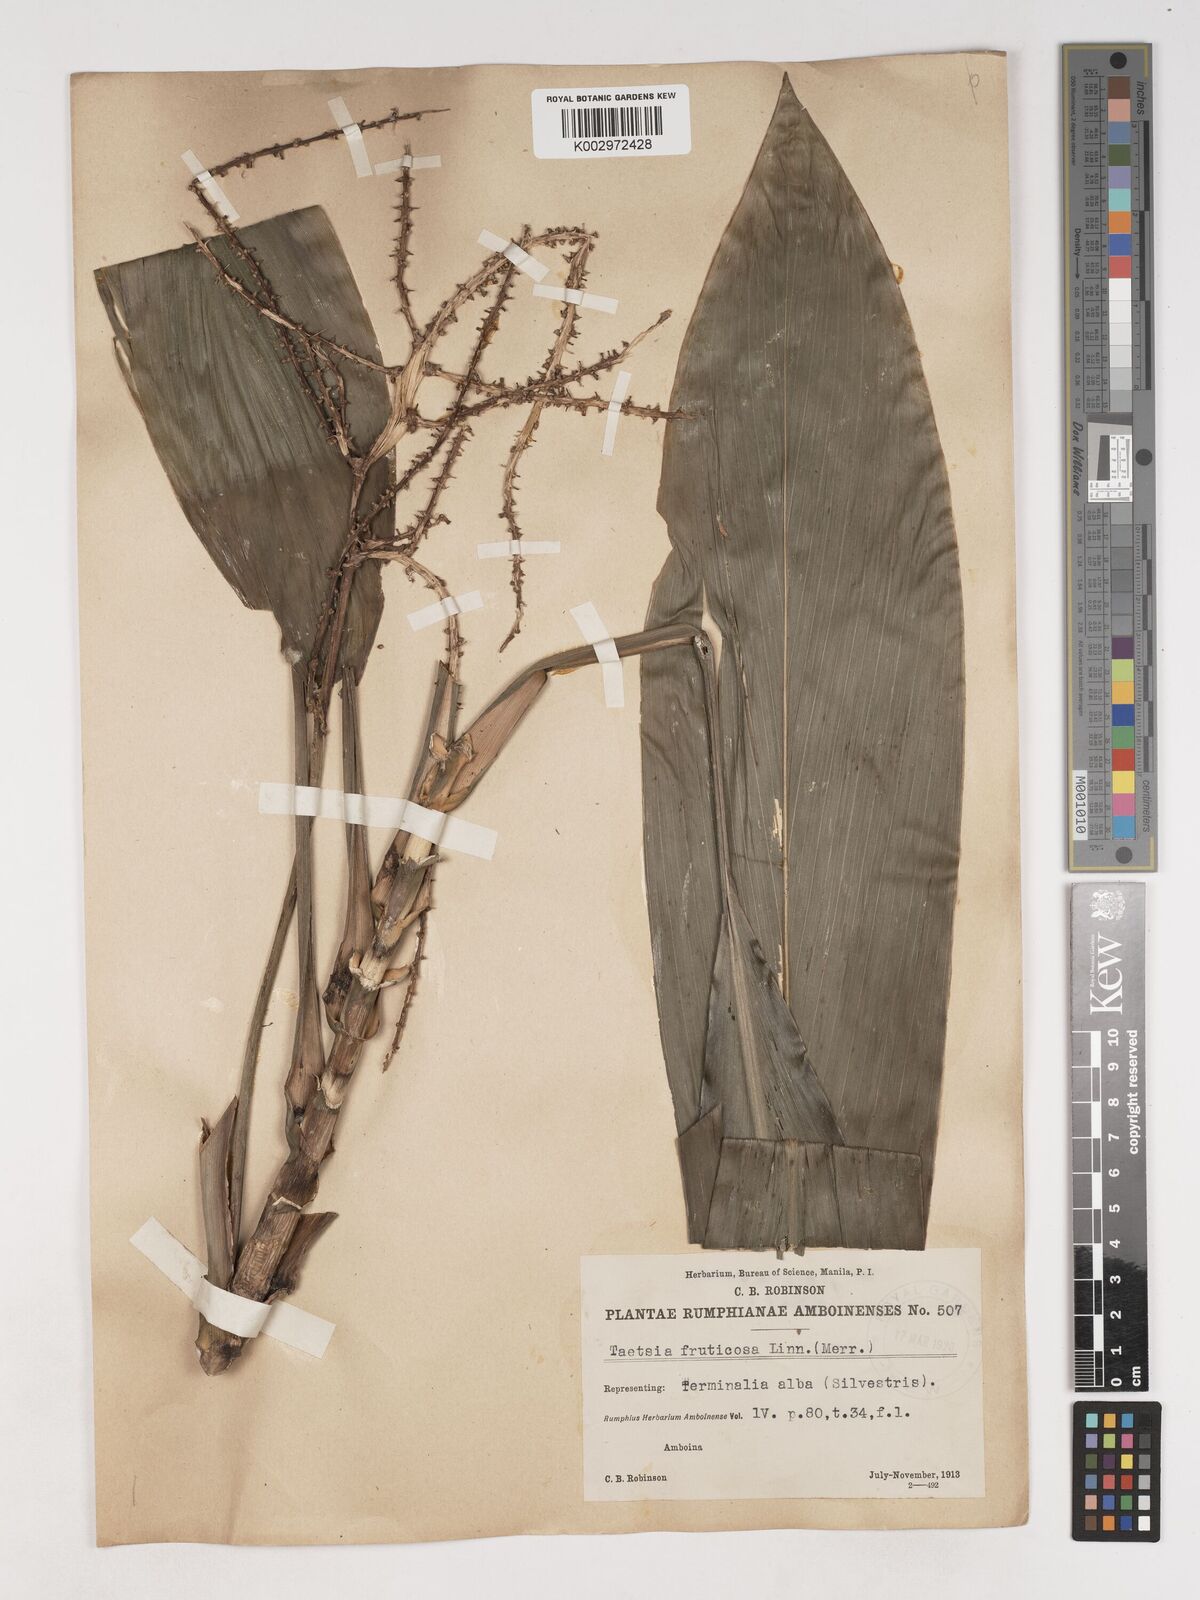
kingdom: Plantae
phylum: Tracheophyta
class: Liliopsida
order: Asparagales
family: Asparagaceae
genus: Cordyline
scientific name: Cordyline fruticosa
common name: Good-luck-plant
